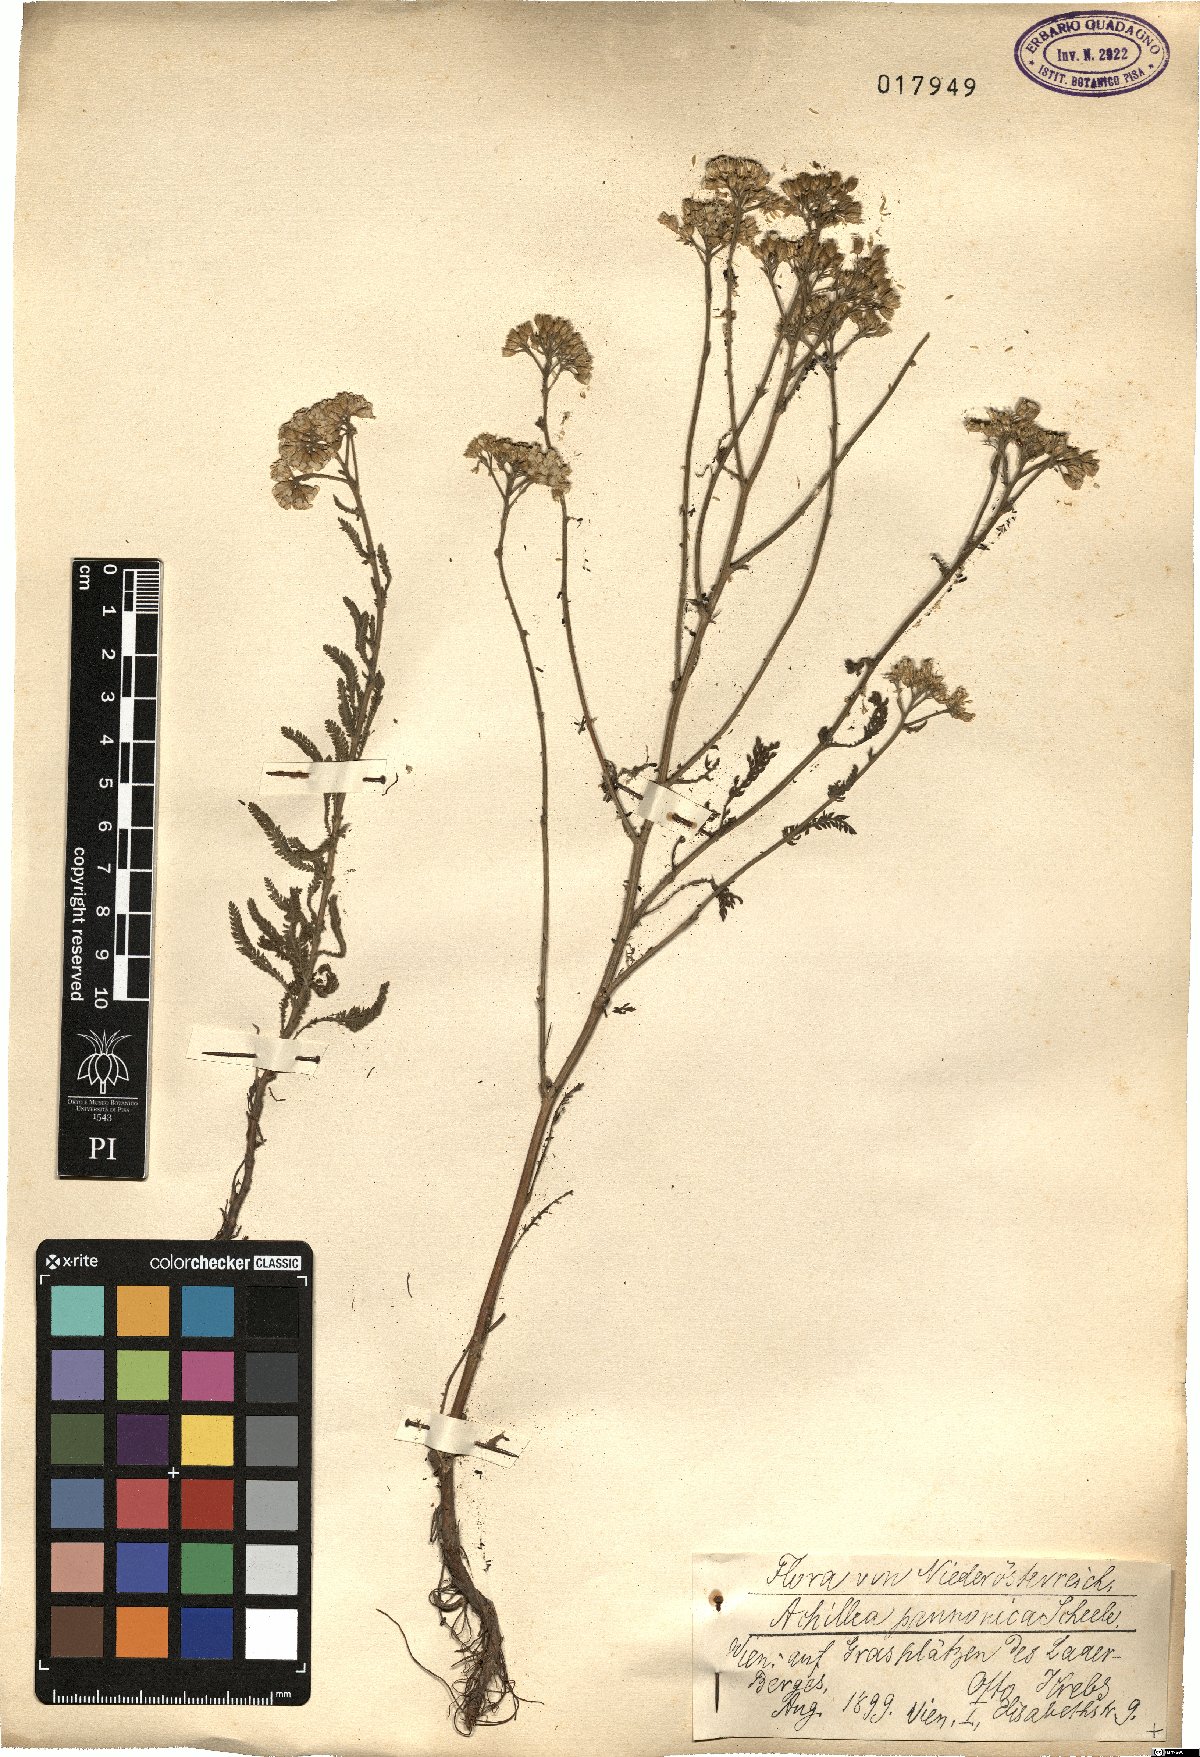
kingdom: Plantae
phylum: Tracheophyta
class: Magnoliopsida
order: Asterales
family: Asteraceae
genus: Achillea
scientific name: Achillea pannonica
